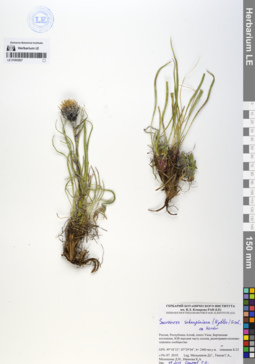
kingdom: Plantae
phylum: Tracheophyta
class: Magnoliopsida
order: Asterales
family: Asteraceae
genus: Saussurea
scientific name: Saussurea schanginiana
